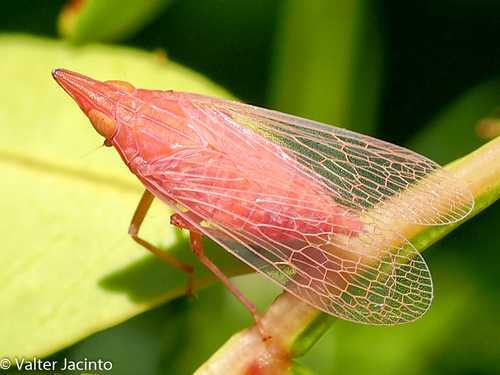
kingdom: Animalia
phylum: Arthropoda
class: Insecta
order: Hemiptera
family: Dictyopharidae
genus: Dictyophara
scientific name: Dictyophara europaea
